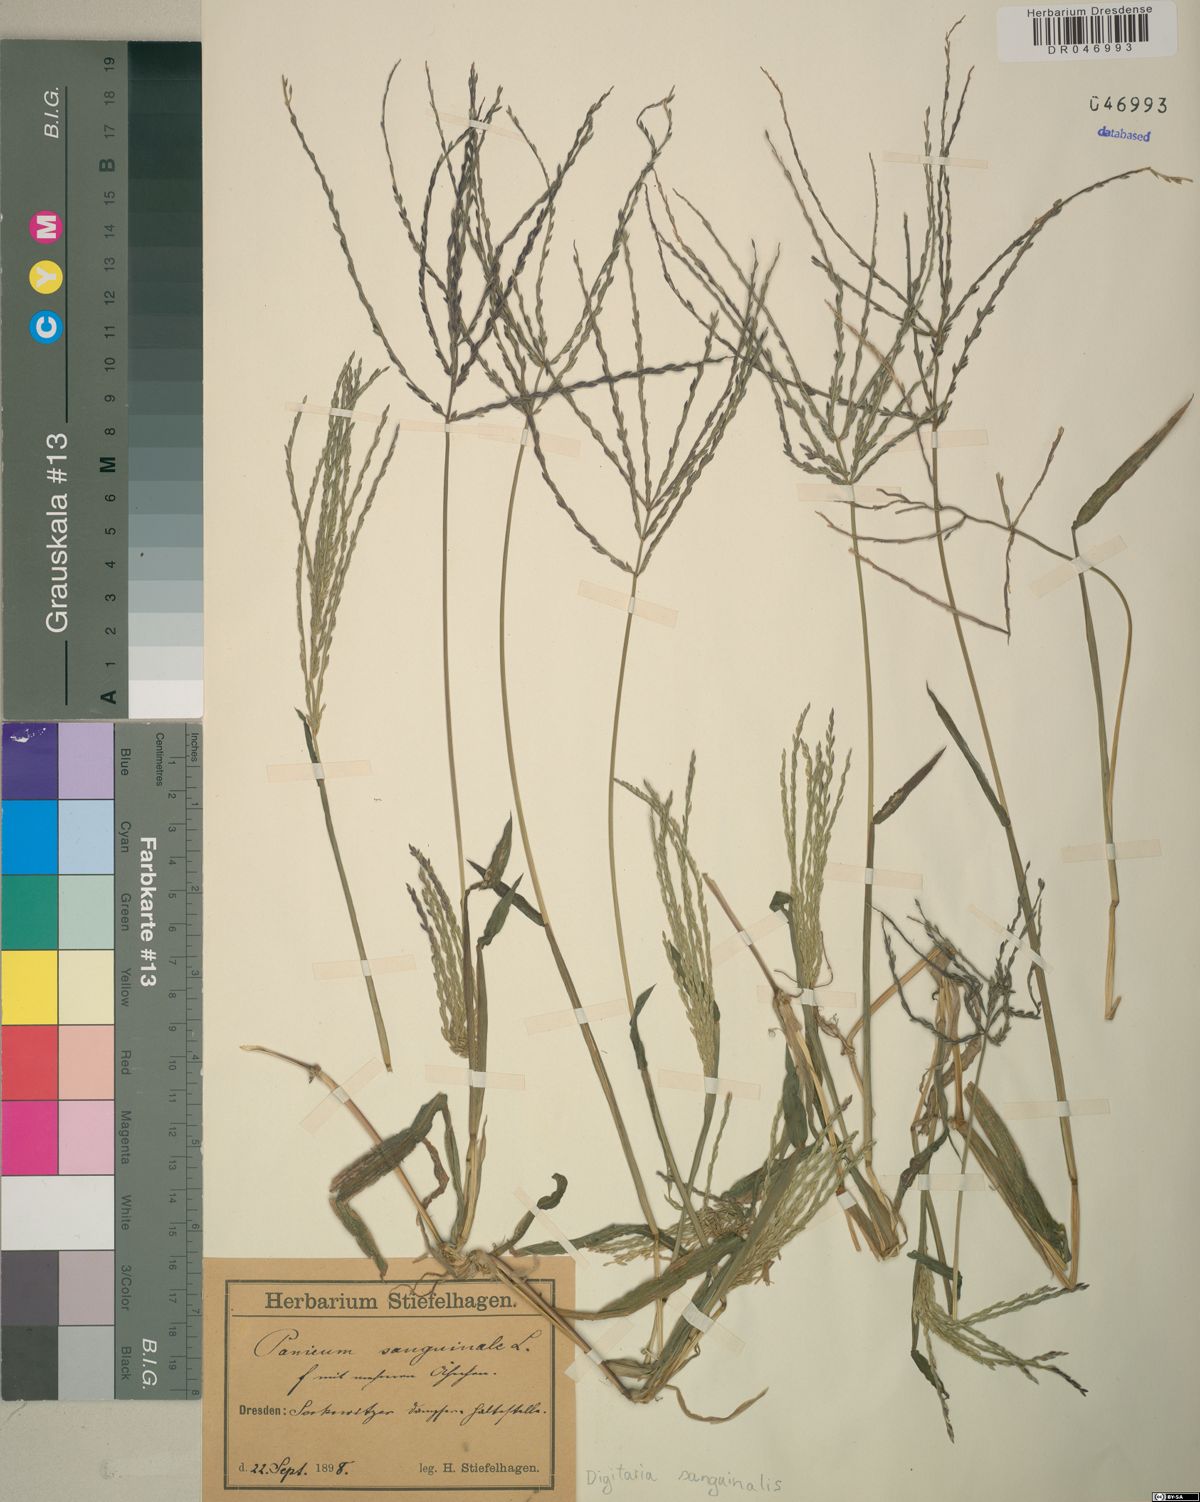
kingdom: Plantae
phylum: Tracheophyta
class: Liliopsida
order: Poales
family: Poaceae
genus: Digitaria
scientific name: Digitaria sanguinalis
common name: Hairy crabgrass
